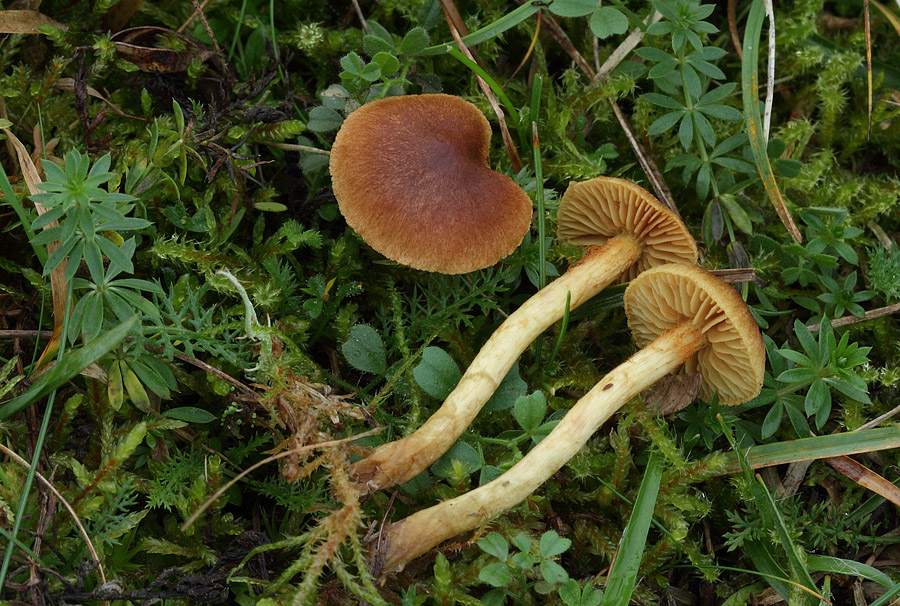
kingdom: Fungi
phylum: Basidiomycota
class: Agaricomycetes
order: Agaricales
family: Cortinariaceae
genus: Cortinarius
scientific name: Cortinarius pratensis
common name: hede-slørhat
